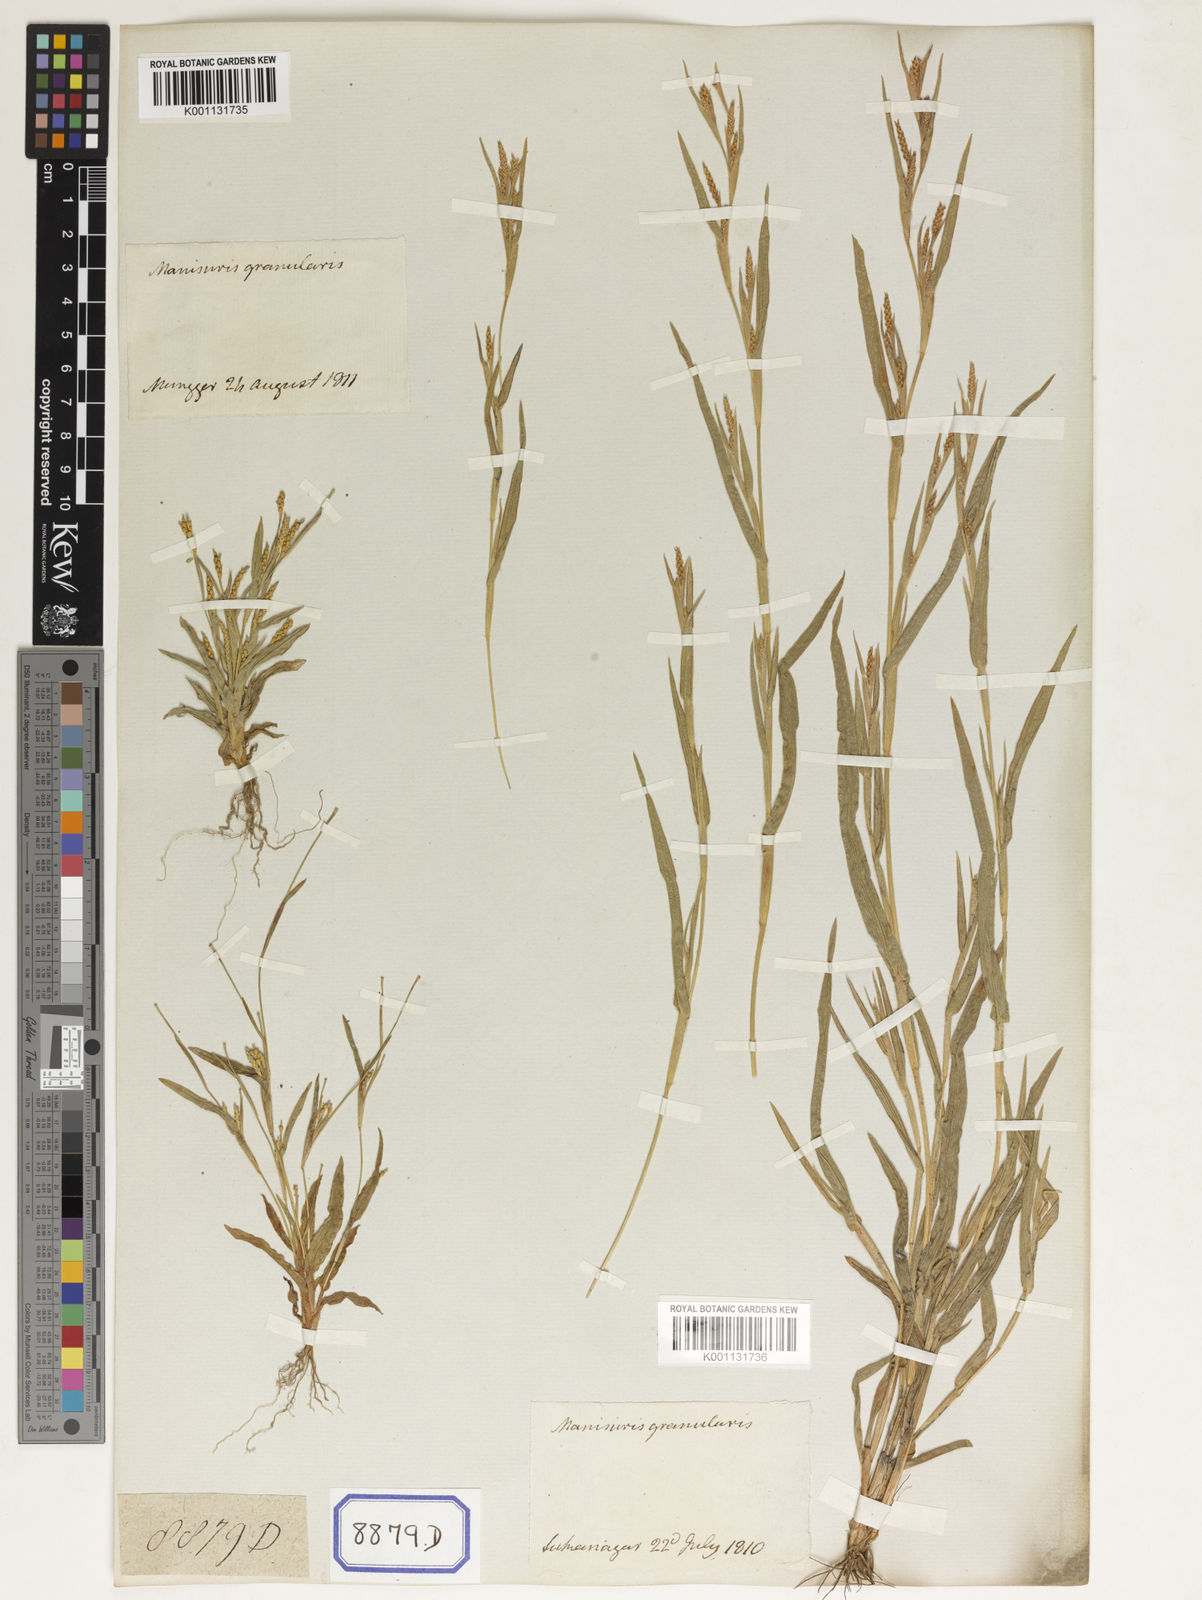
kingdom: Plantae
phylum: Tracheophyta
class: Liliopsida
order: Poales
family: Poaceae
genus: Manisuris
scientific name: Manisuris
